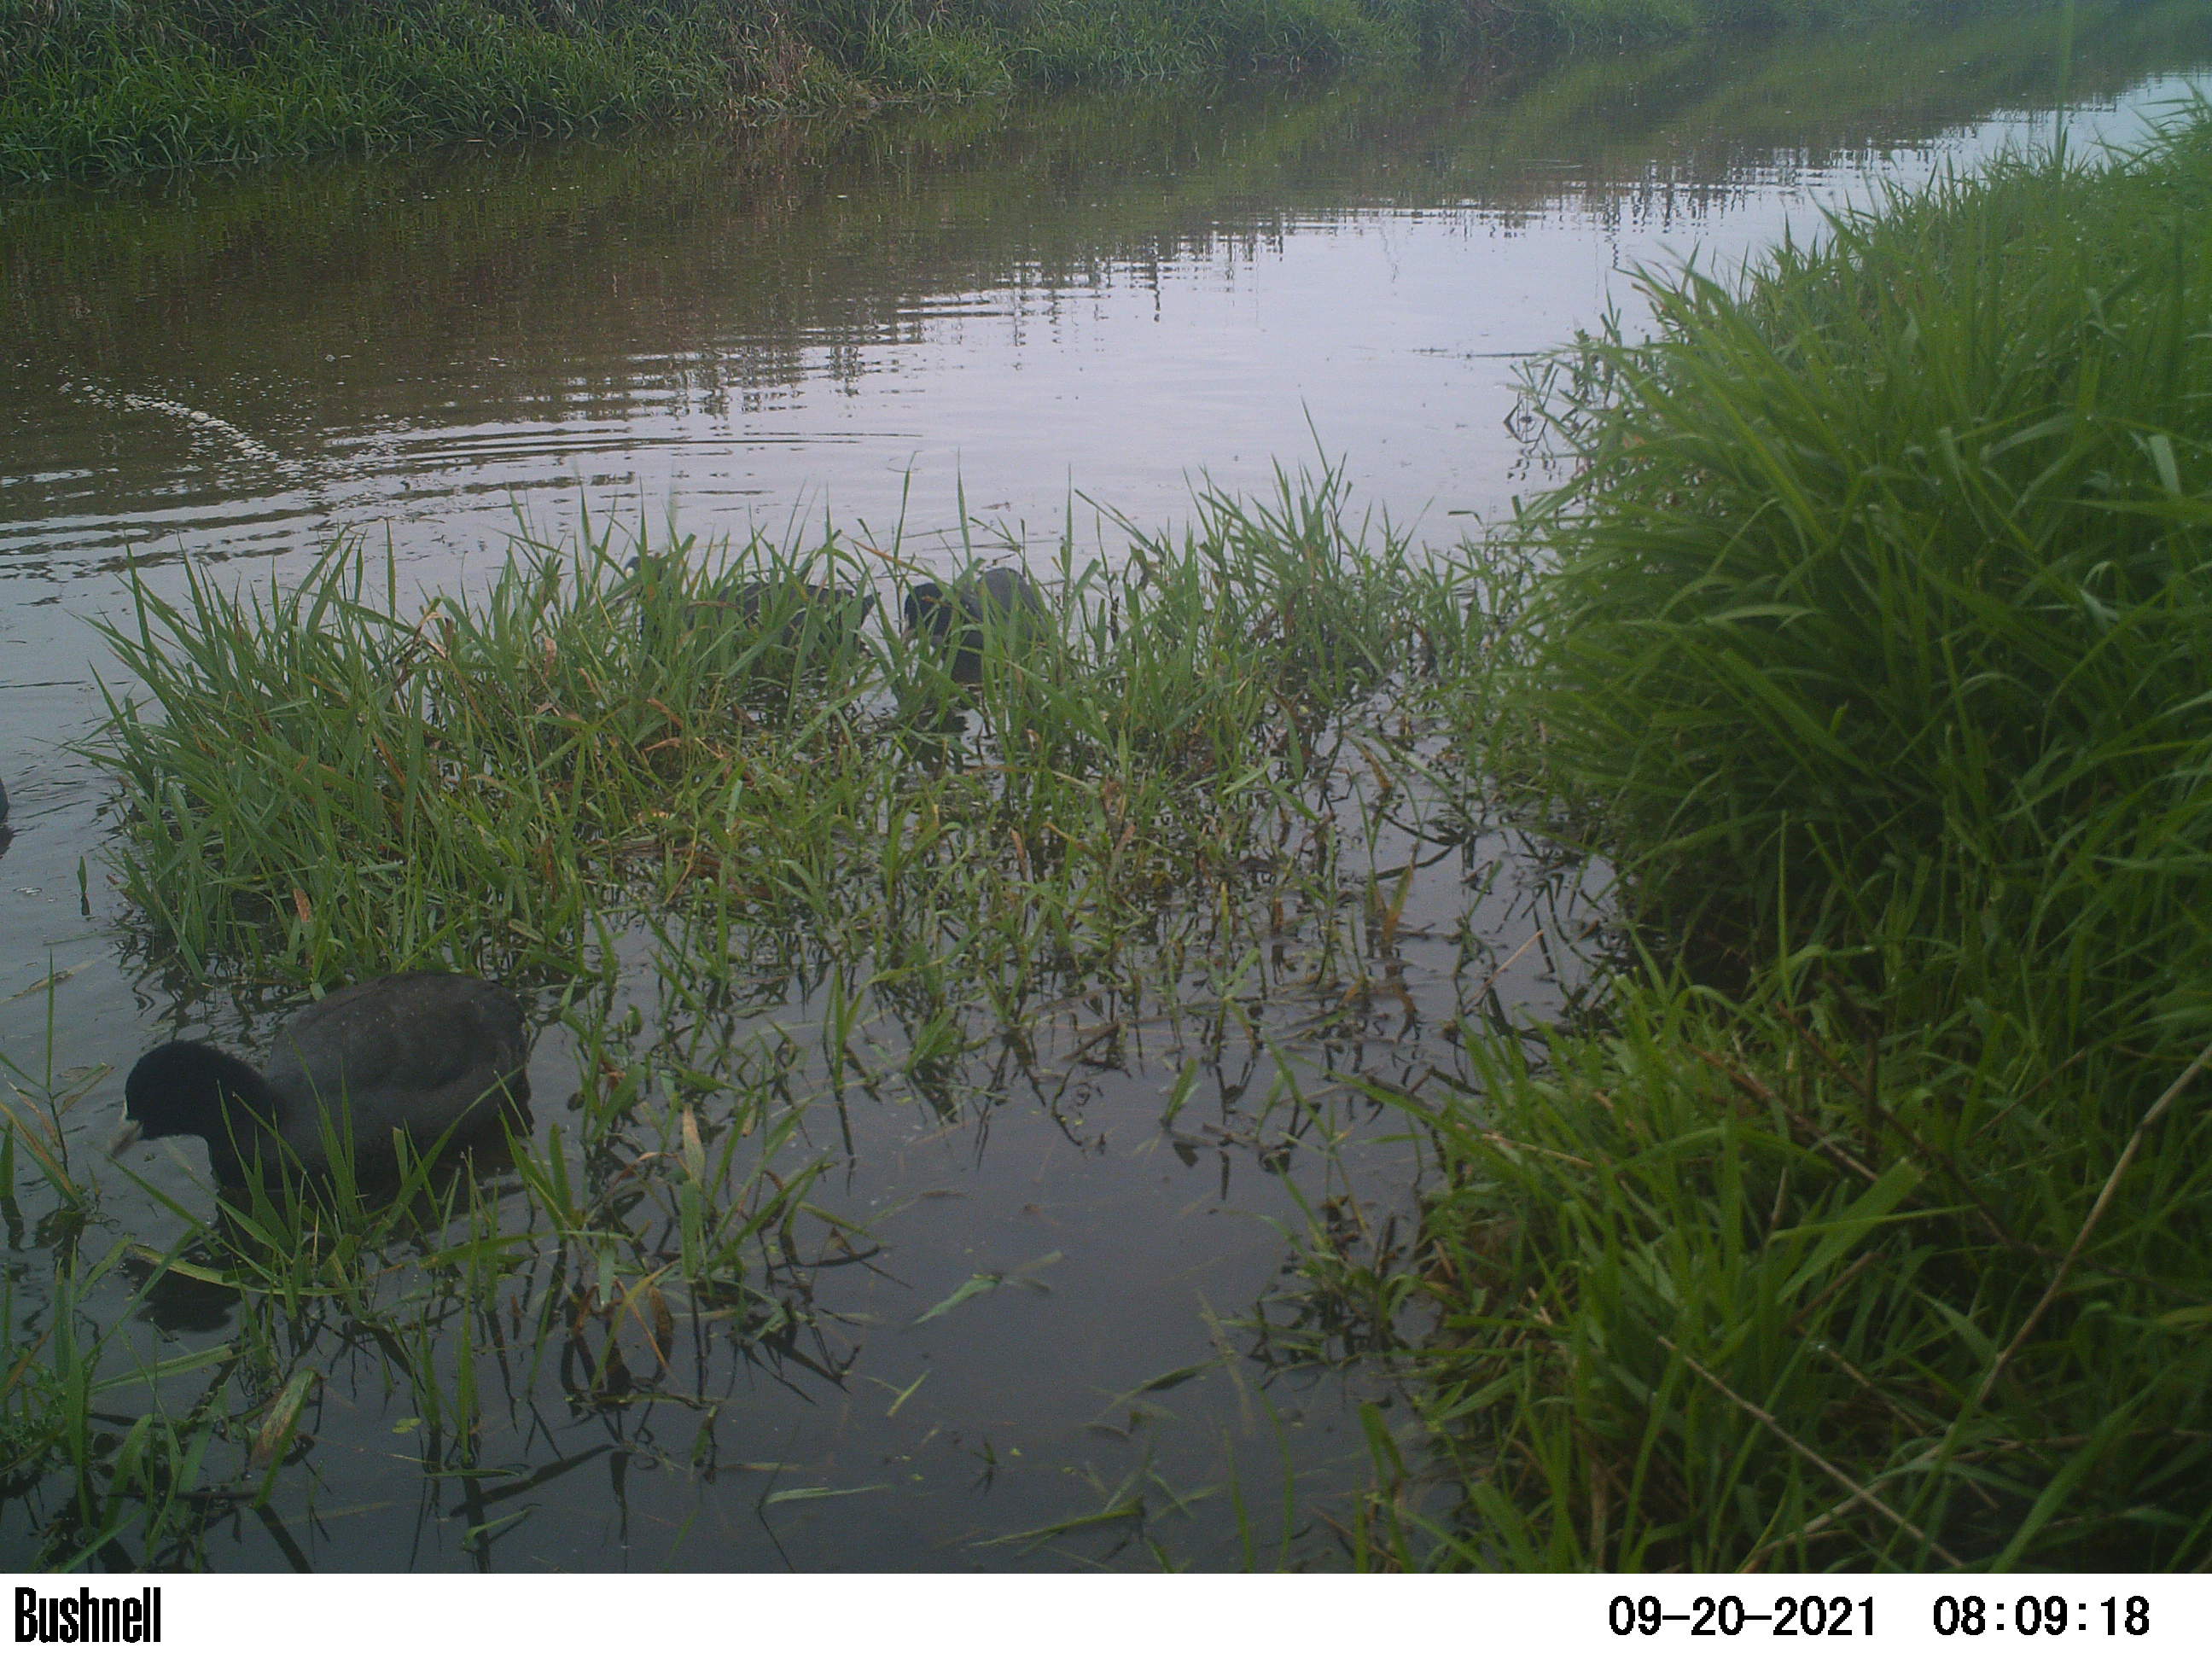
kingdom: Animalia
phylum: Chordata
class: Aves
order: Gruiformes
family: Rallidae
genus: Fulica
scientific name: Fulica atra
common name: Eurasian coot
